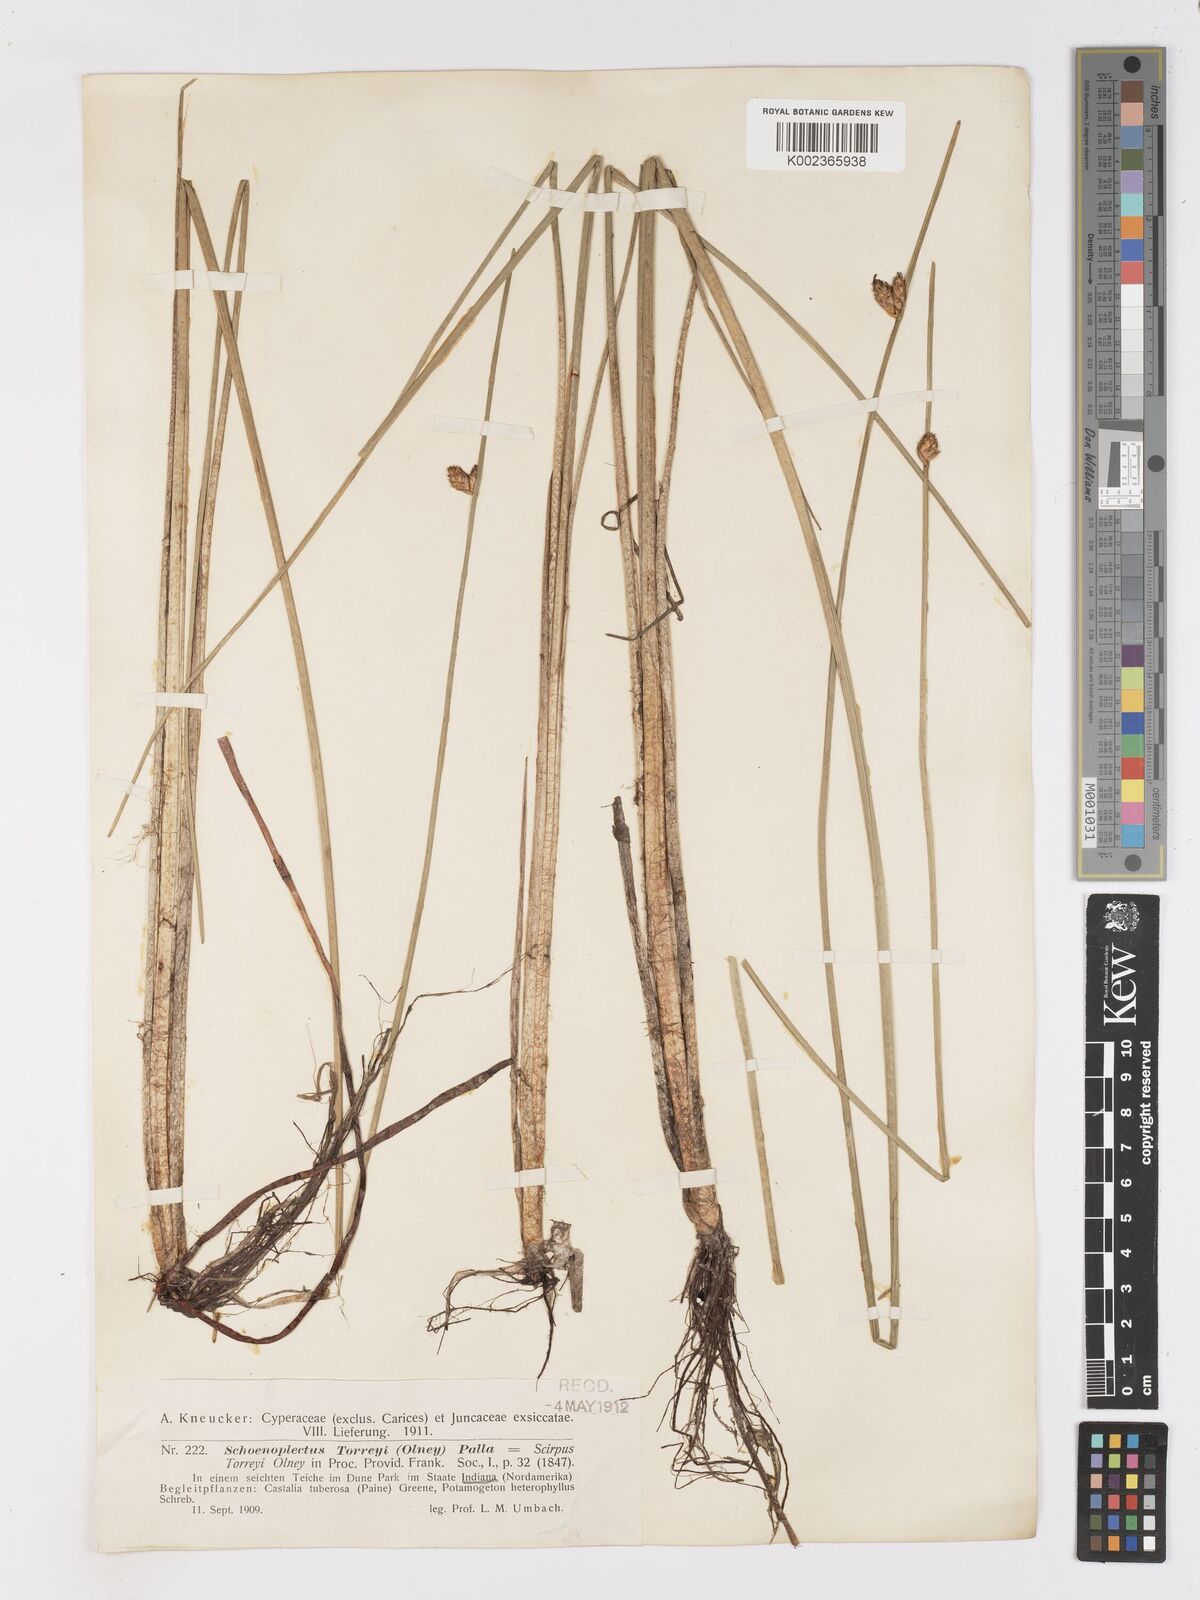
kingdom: Plantae
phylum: Tracheophyta
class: Liliopsida
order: Poales
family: Cyperaceae
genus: Schoenoplectus
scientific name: Schoenoplectus torreyi
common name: Torrey's bulrush
